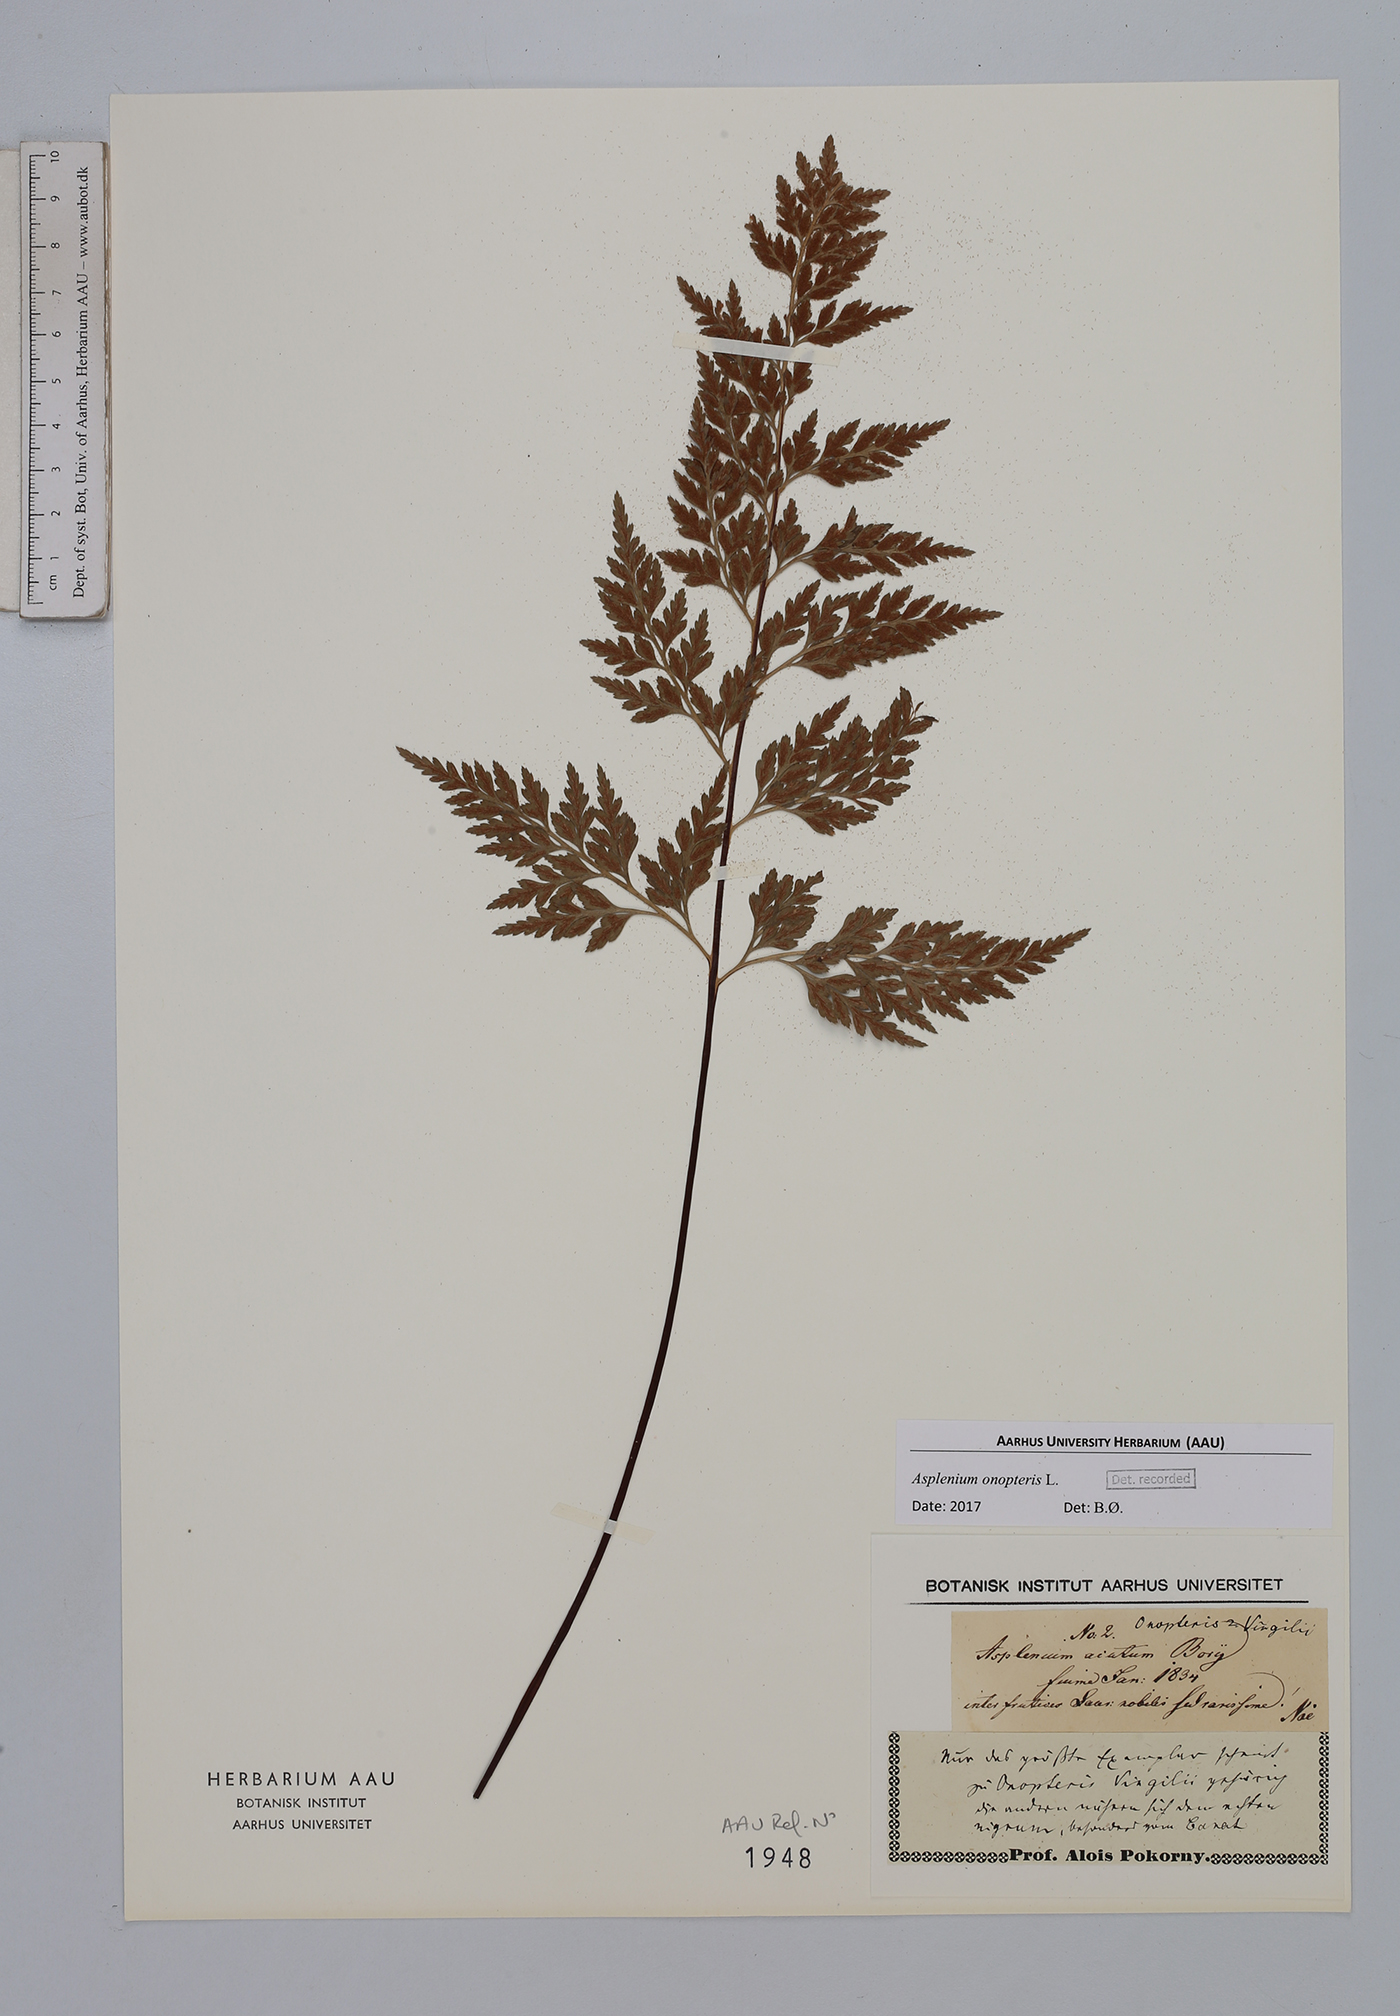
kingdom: Plantae
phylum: Tracheophyta
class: Polypodiopsida
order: Polypodiales
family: Aspleniaceae
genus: Asplenium
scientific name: Asplenium onopteris
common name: Irish spleenwort
